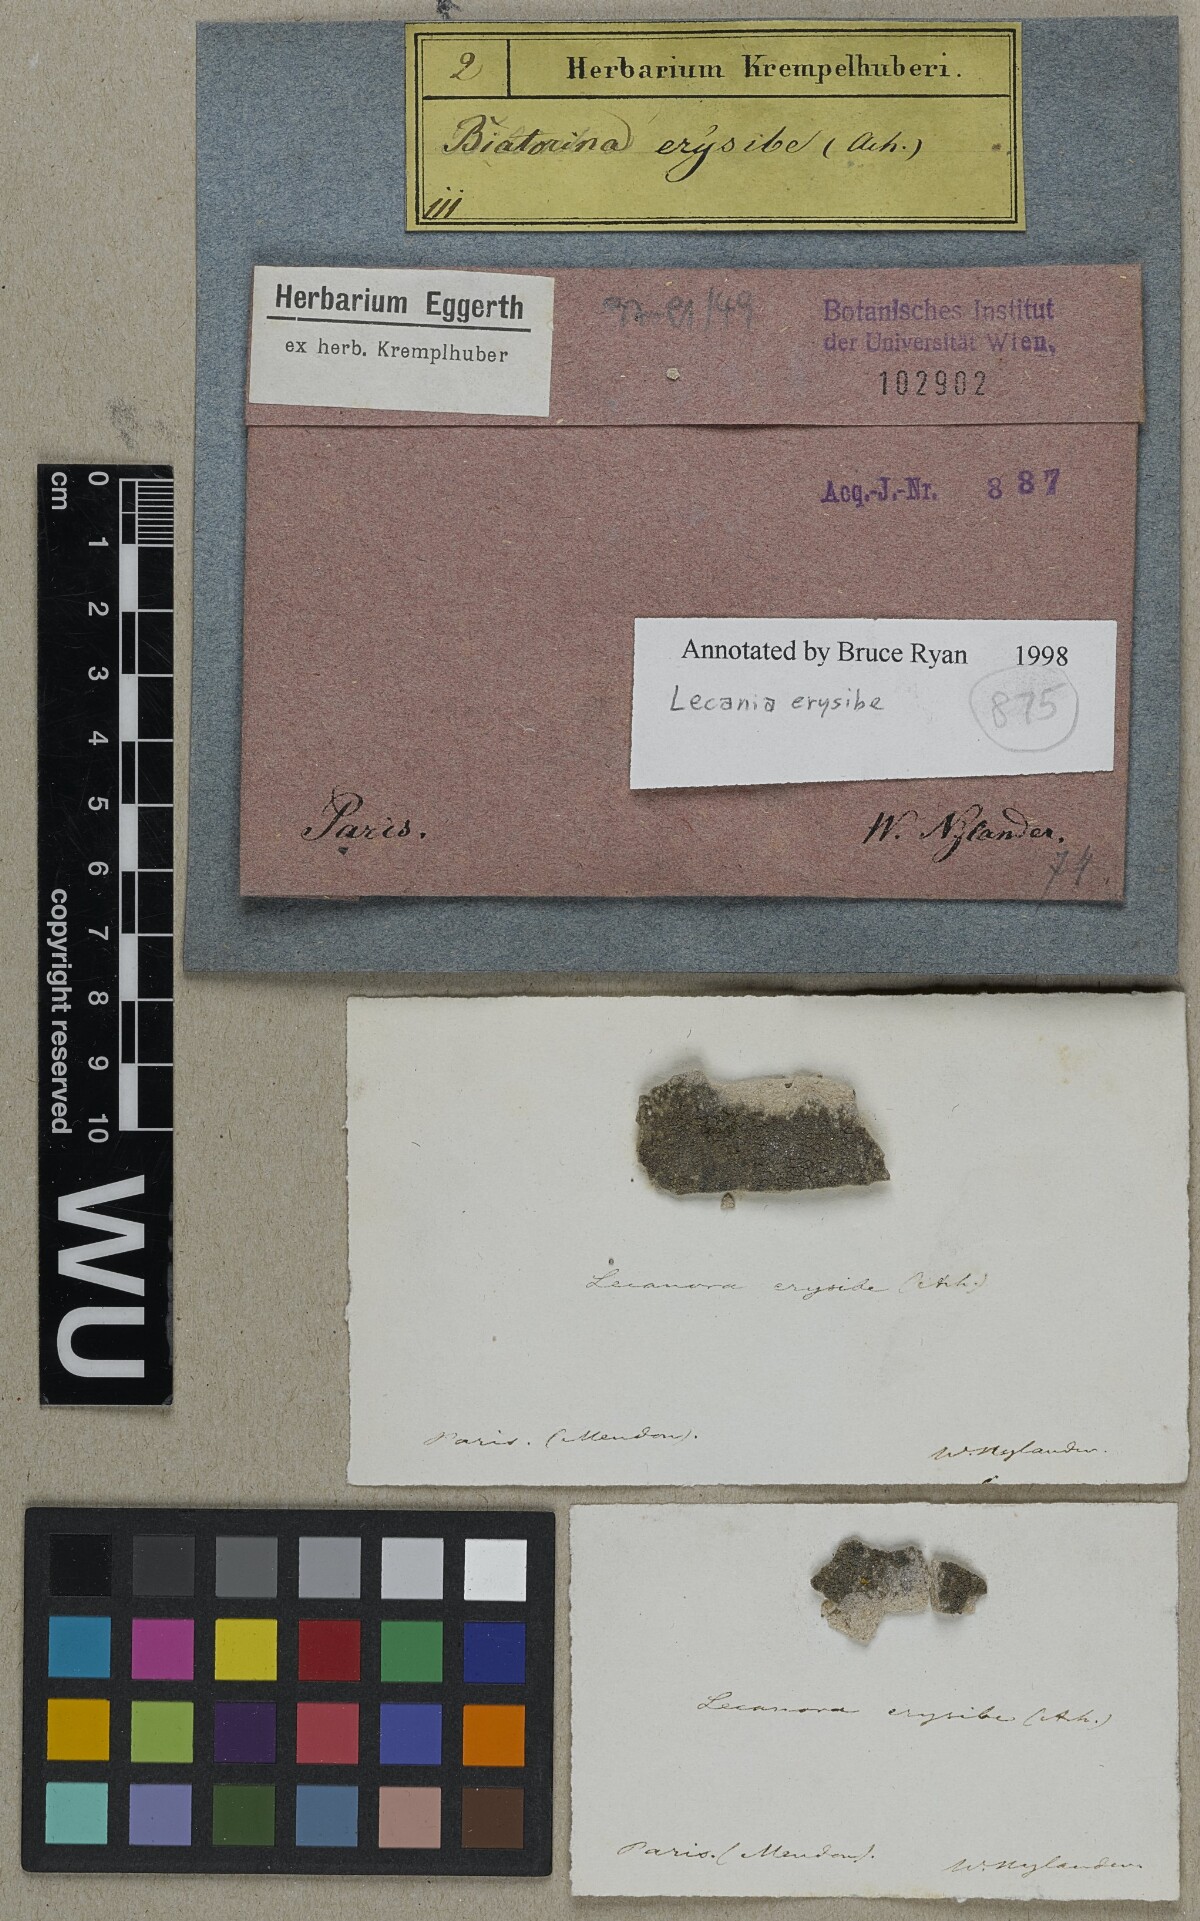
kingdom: Fungi
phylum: Ascomycota
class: Lecanoromycetes
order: Lecanorales
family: Ramalinaceae
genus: Lecania
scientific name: Lecania erysibe
